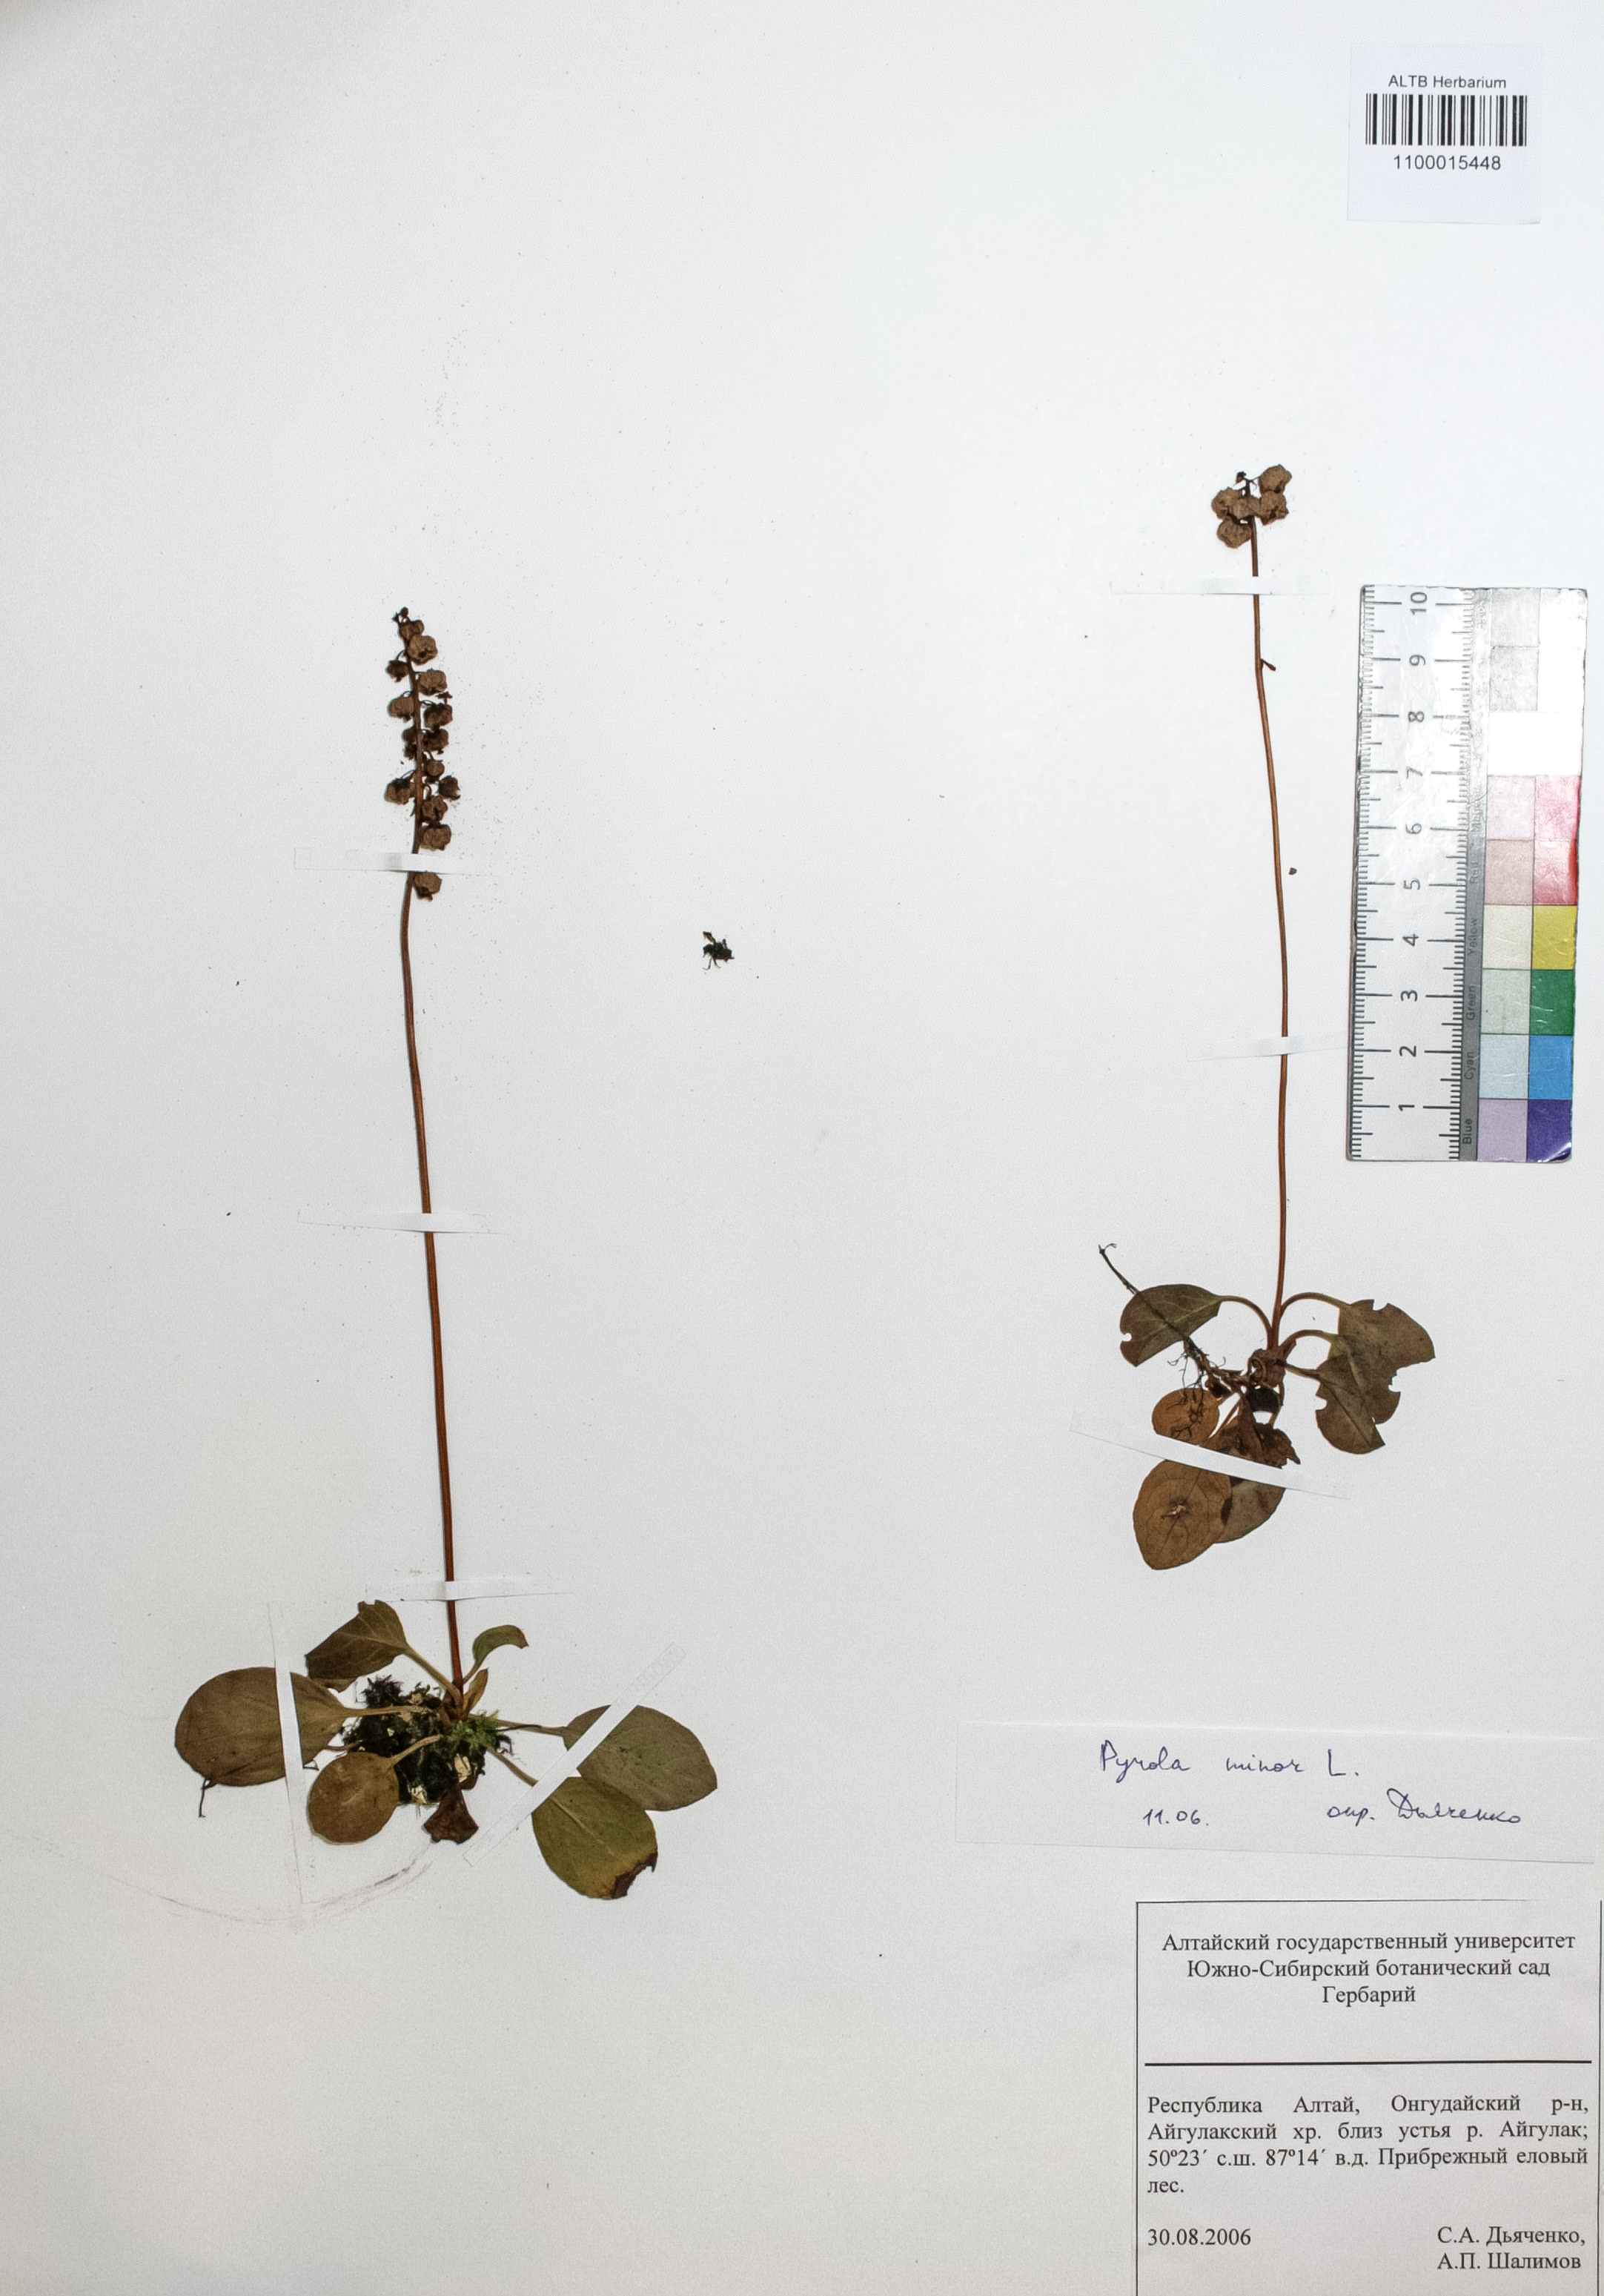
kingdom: Plantae
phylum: Tracheophyta
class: Magnoliopsida
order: Ericales
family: Ericaceae
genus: Pyrola
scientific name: Pyrola minor
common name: Common wintergreen
